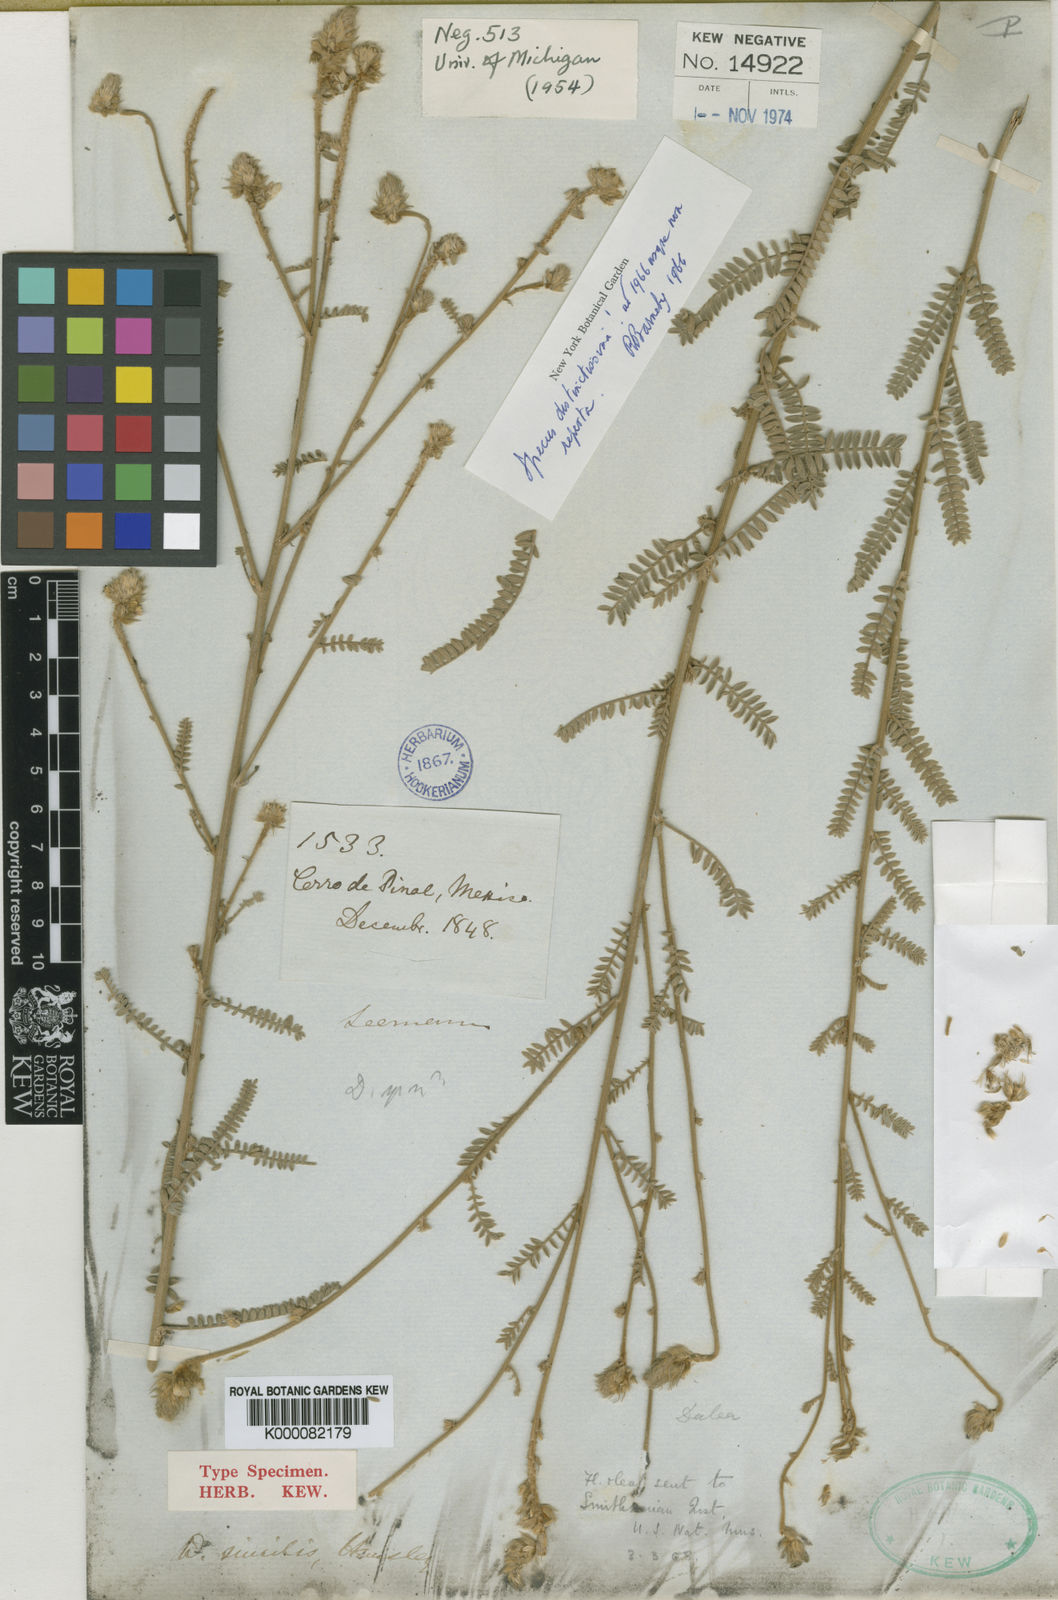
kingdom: Plantae
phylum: Tracheophyta
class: Magnoliopsida
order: Fabales
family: Fabaceae
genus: Dalea
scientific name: Dalea similis
